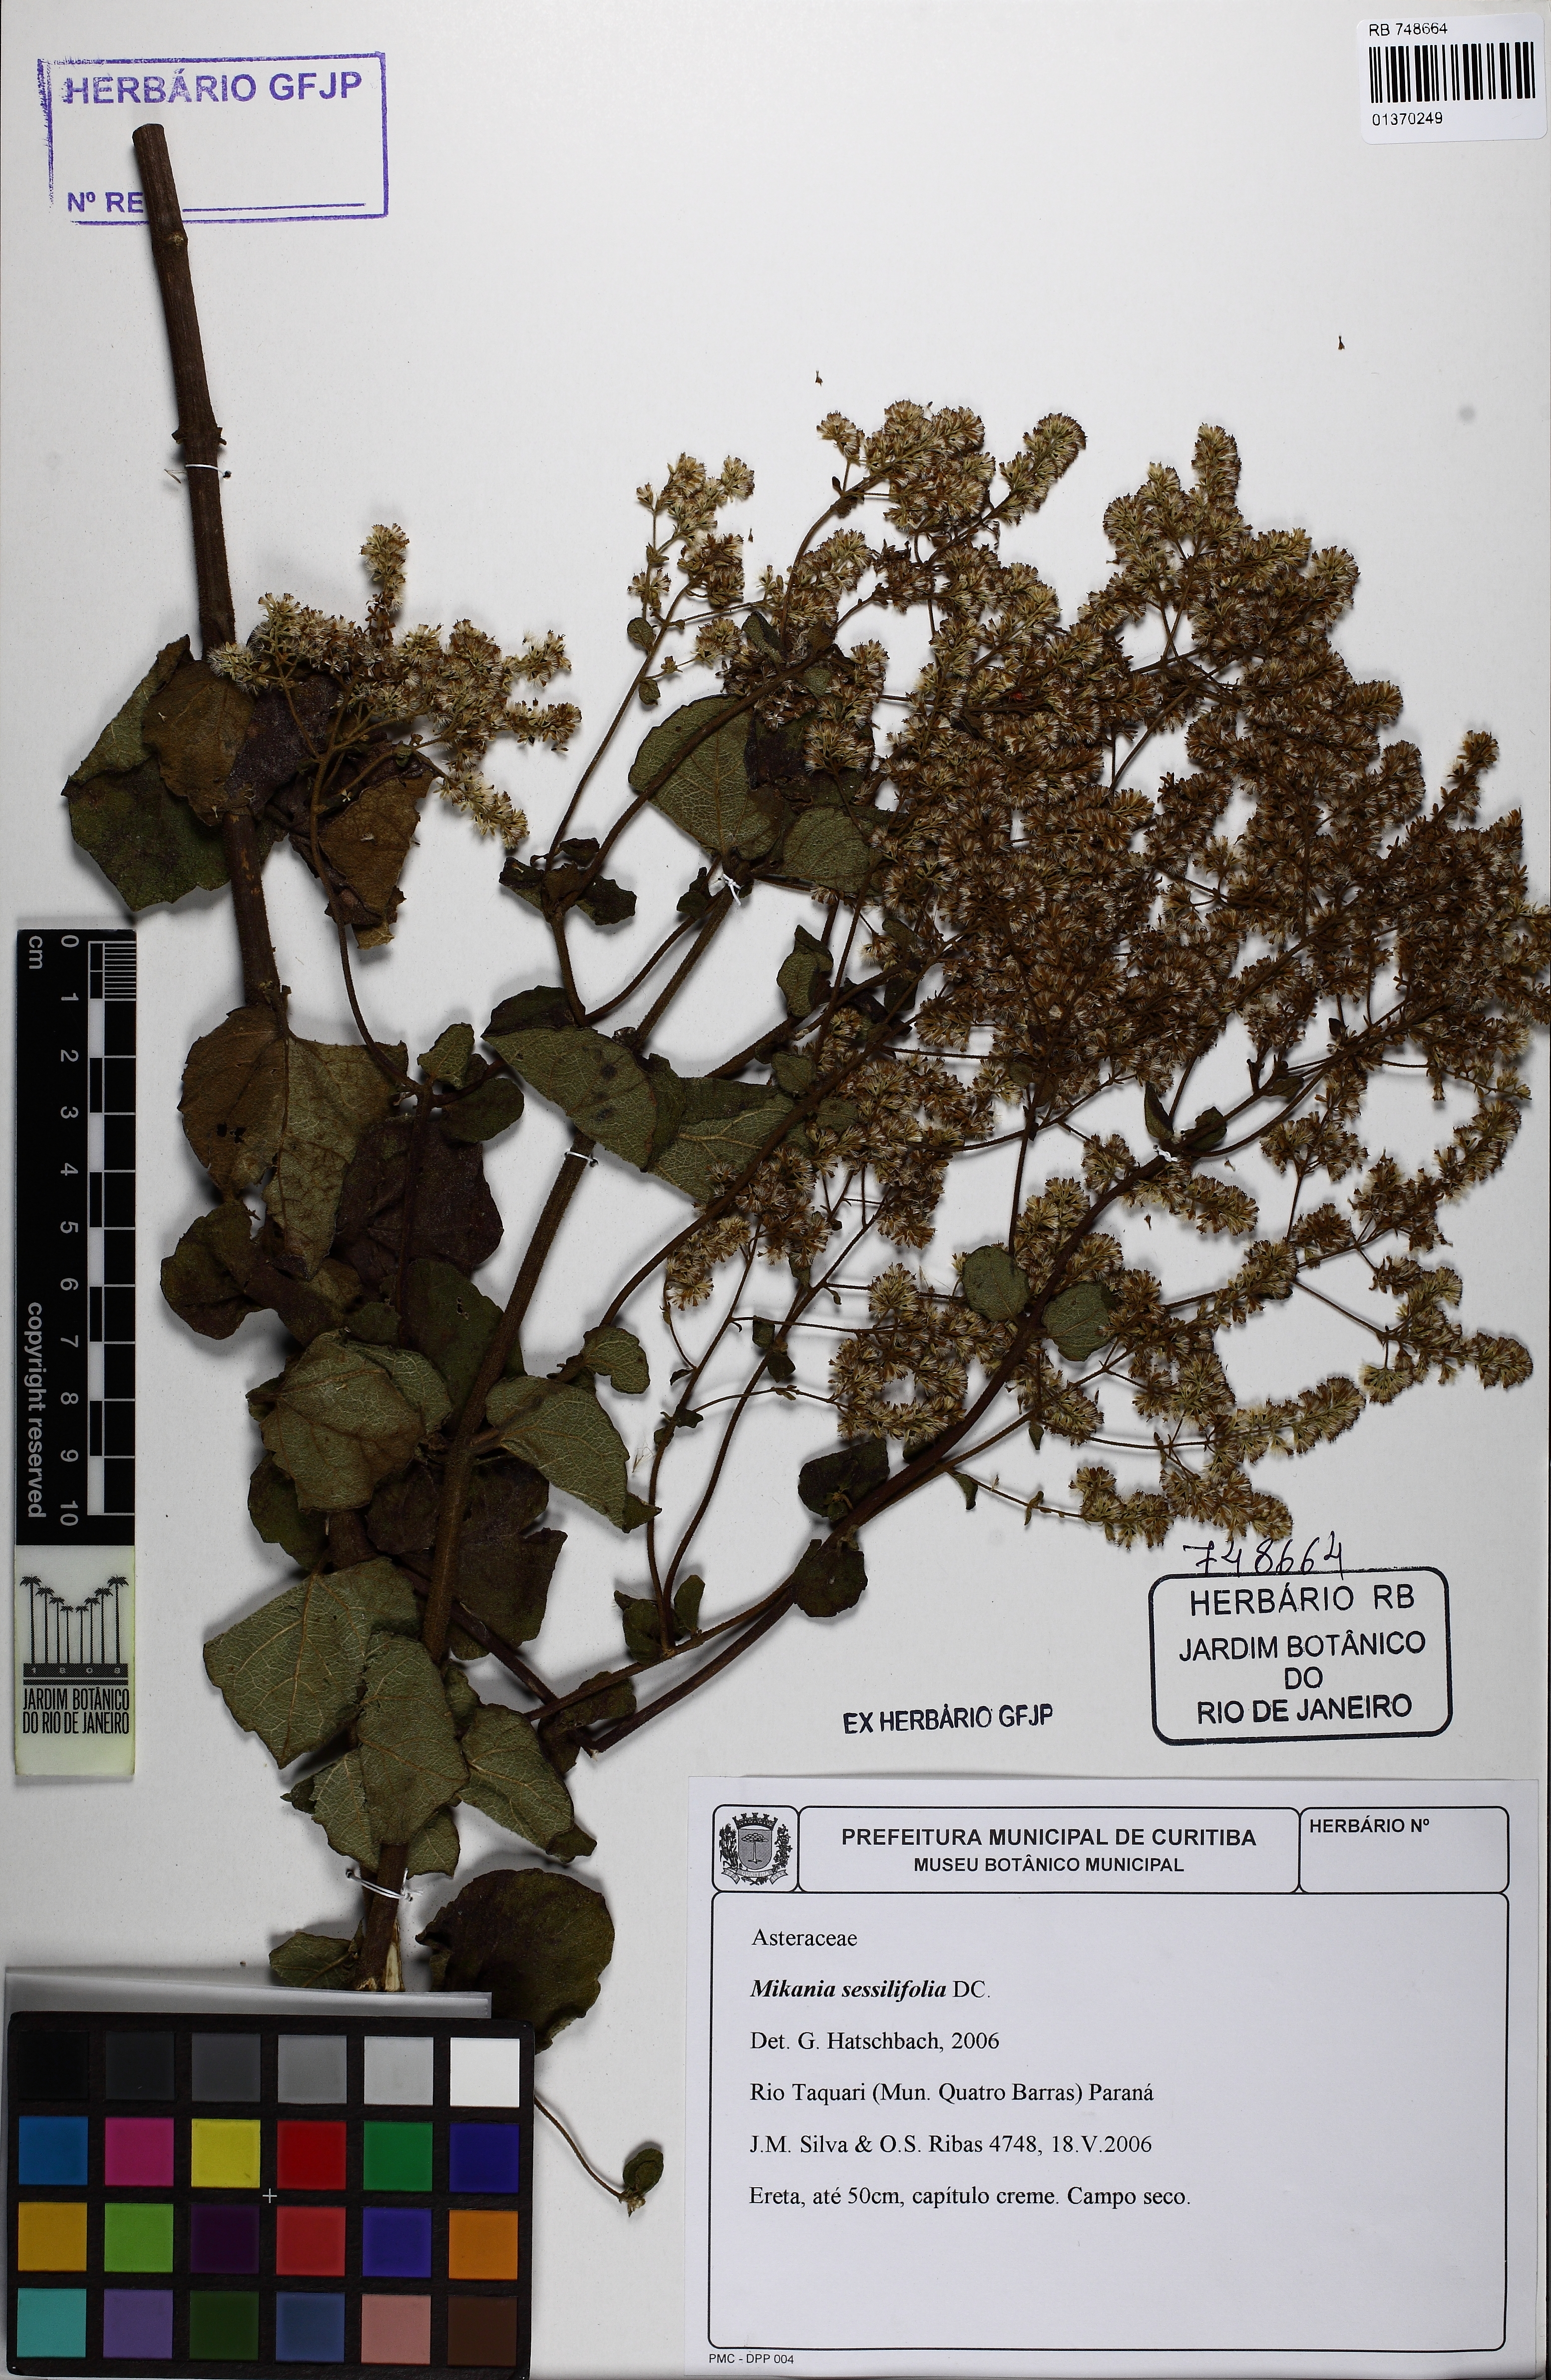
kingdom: Plantae
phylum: Tracheophyta
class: Magnoliopsida
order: Asterales
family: Asteraceae
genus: Mikania
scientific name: Mikania sessilifolia
